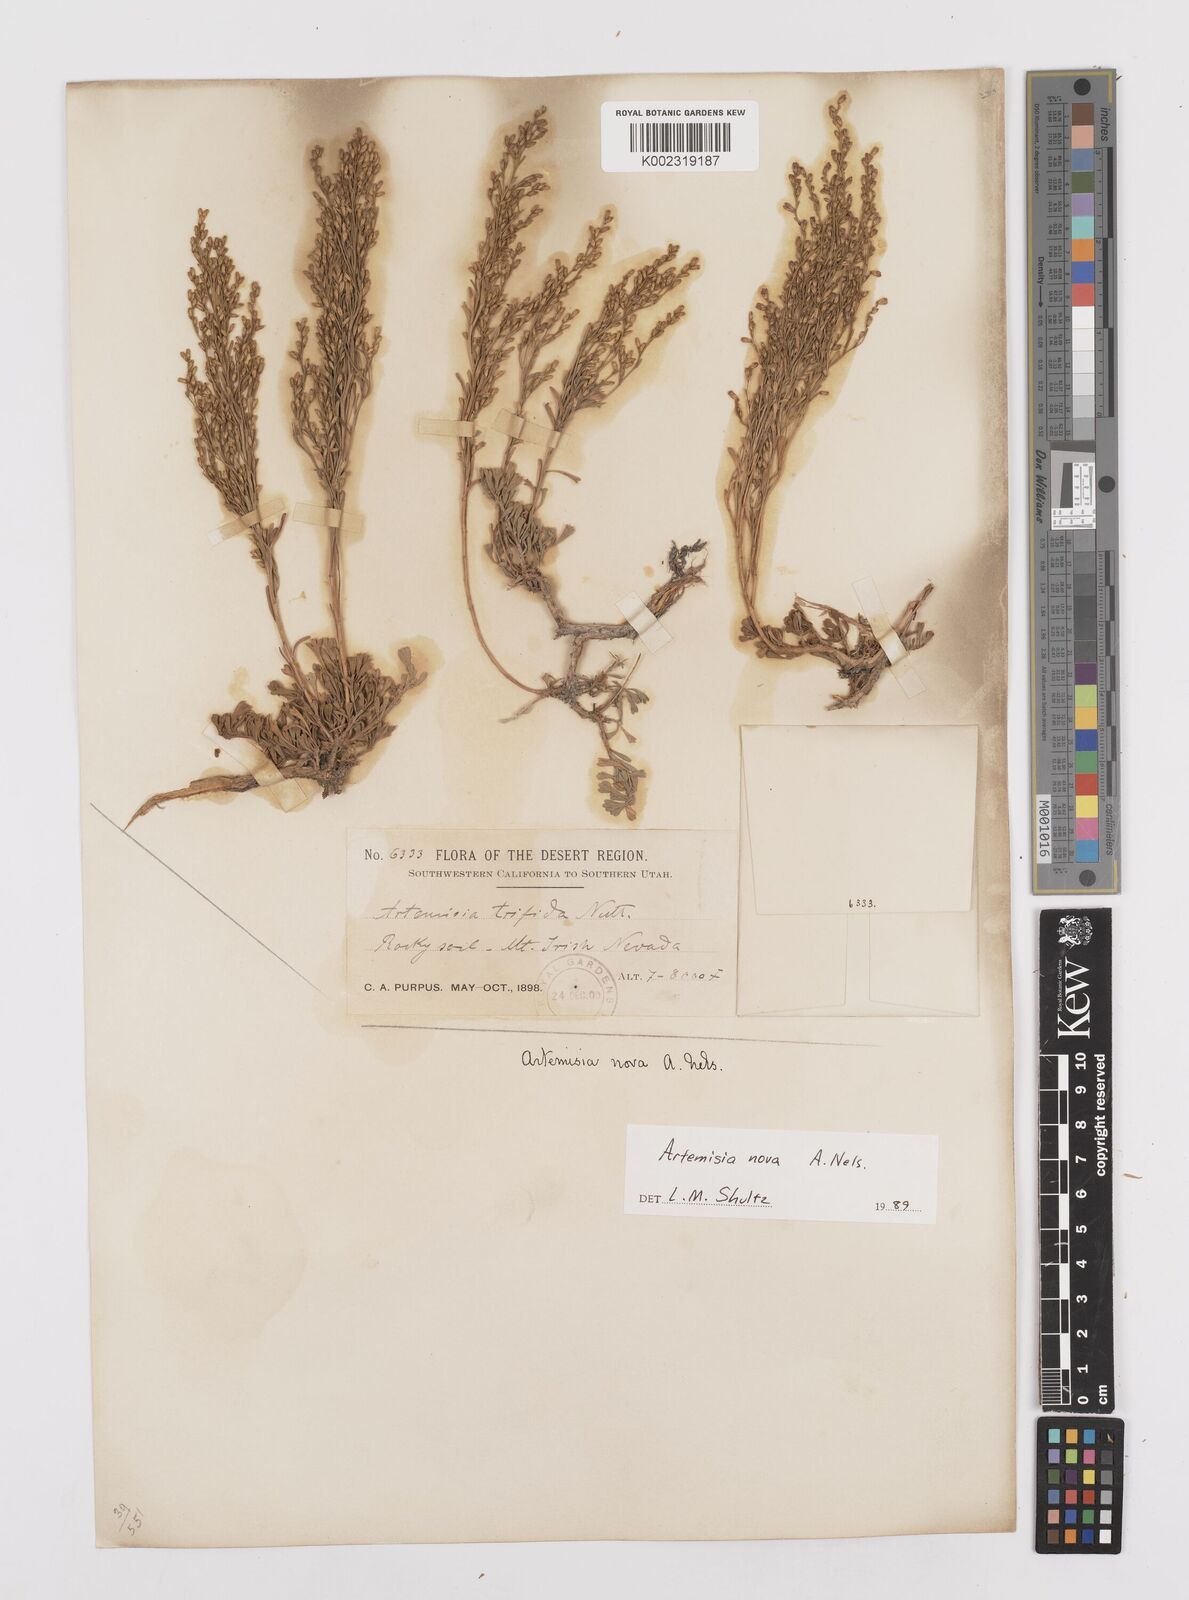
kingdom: Plantae
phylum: Tracheophyta
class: Magnoliopsida
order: Asterales
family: Asteraceae
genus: Artemisia
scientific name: Artemisia nova
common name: Black-sage
